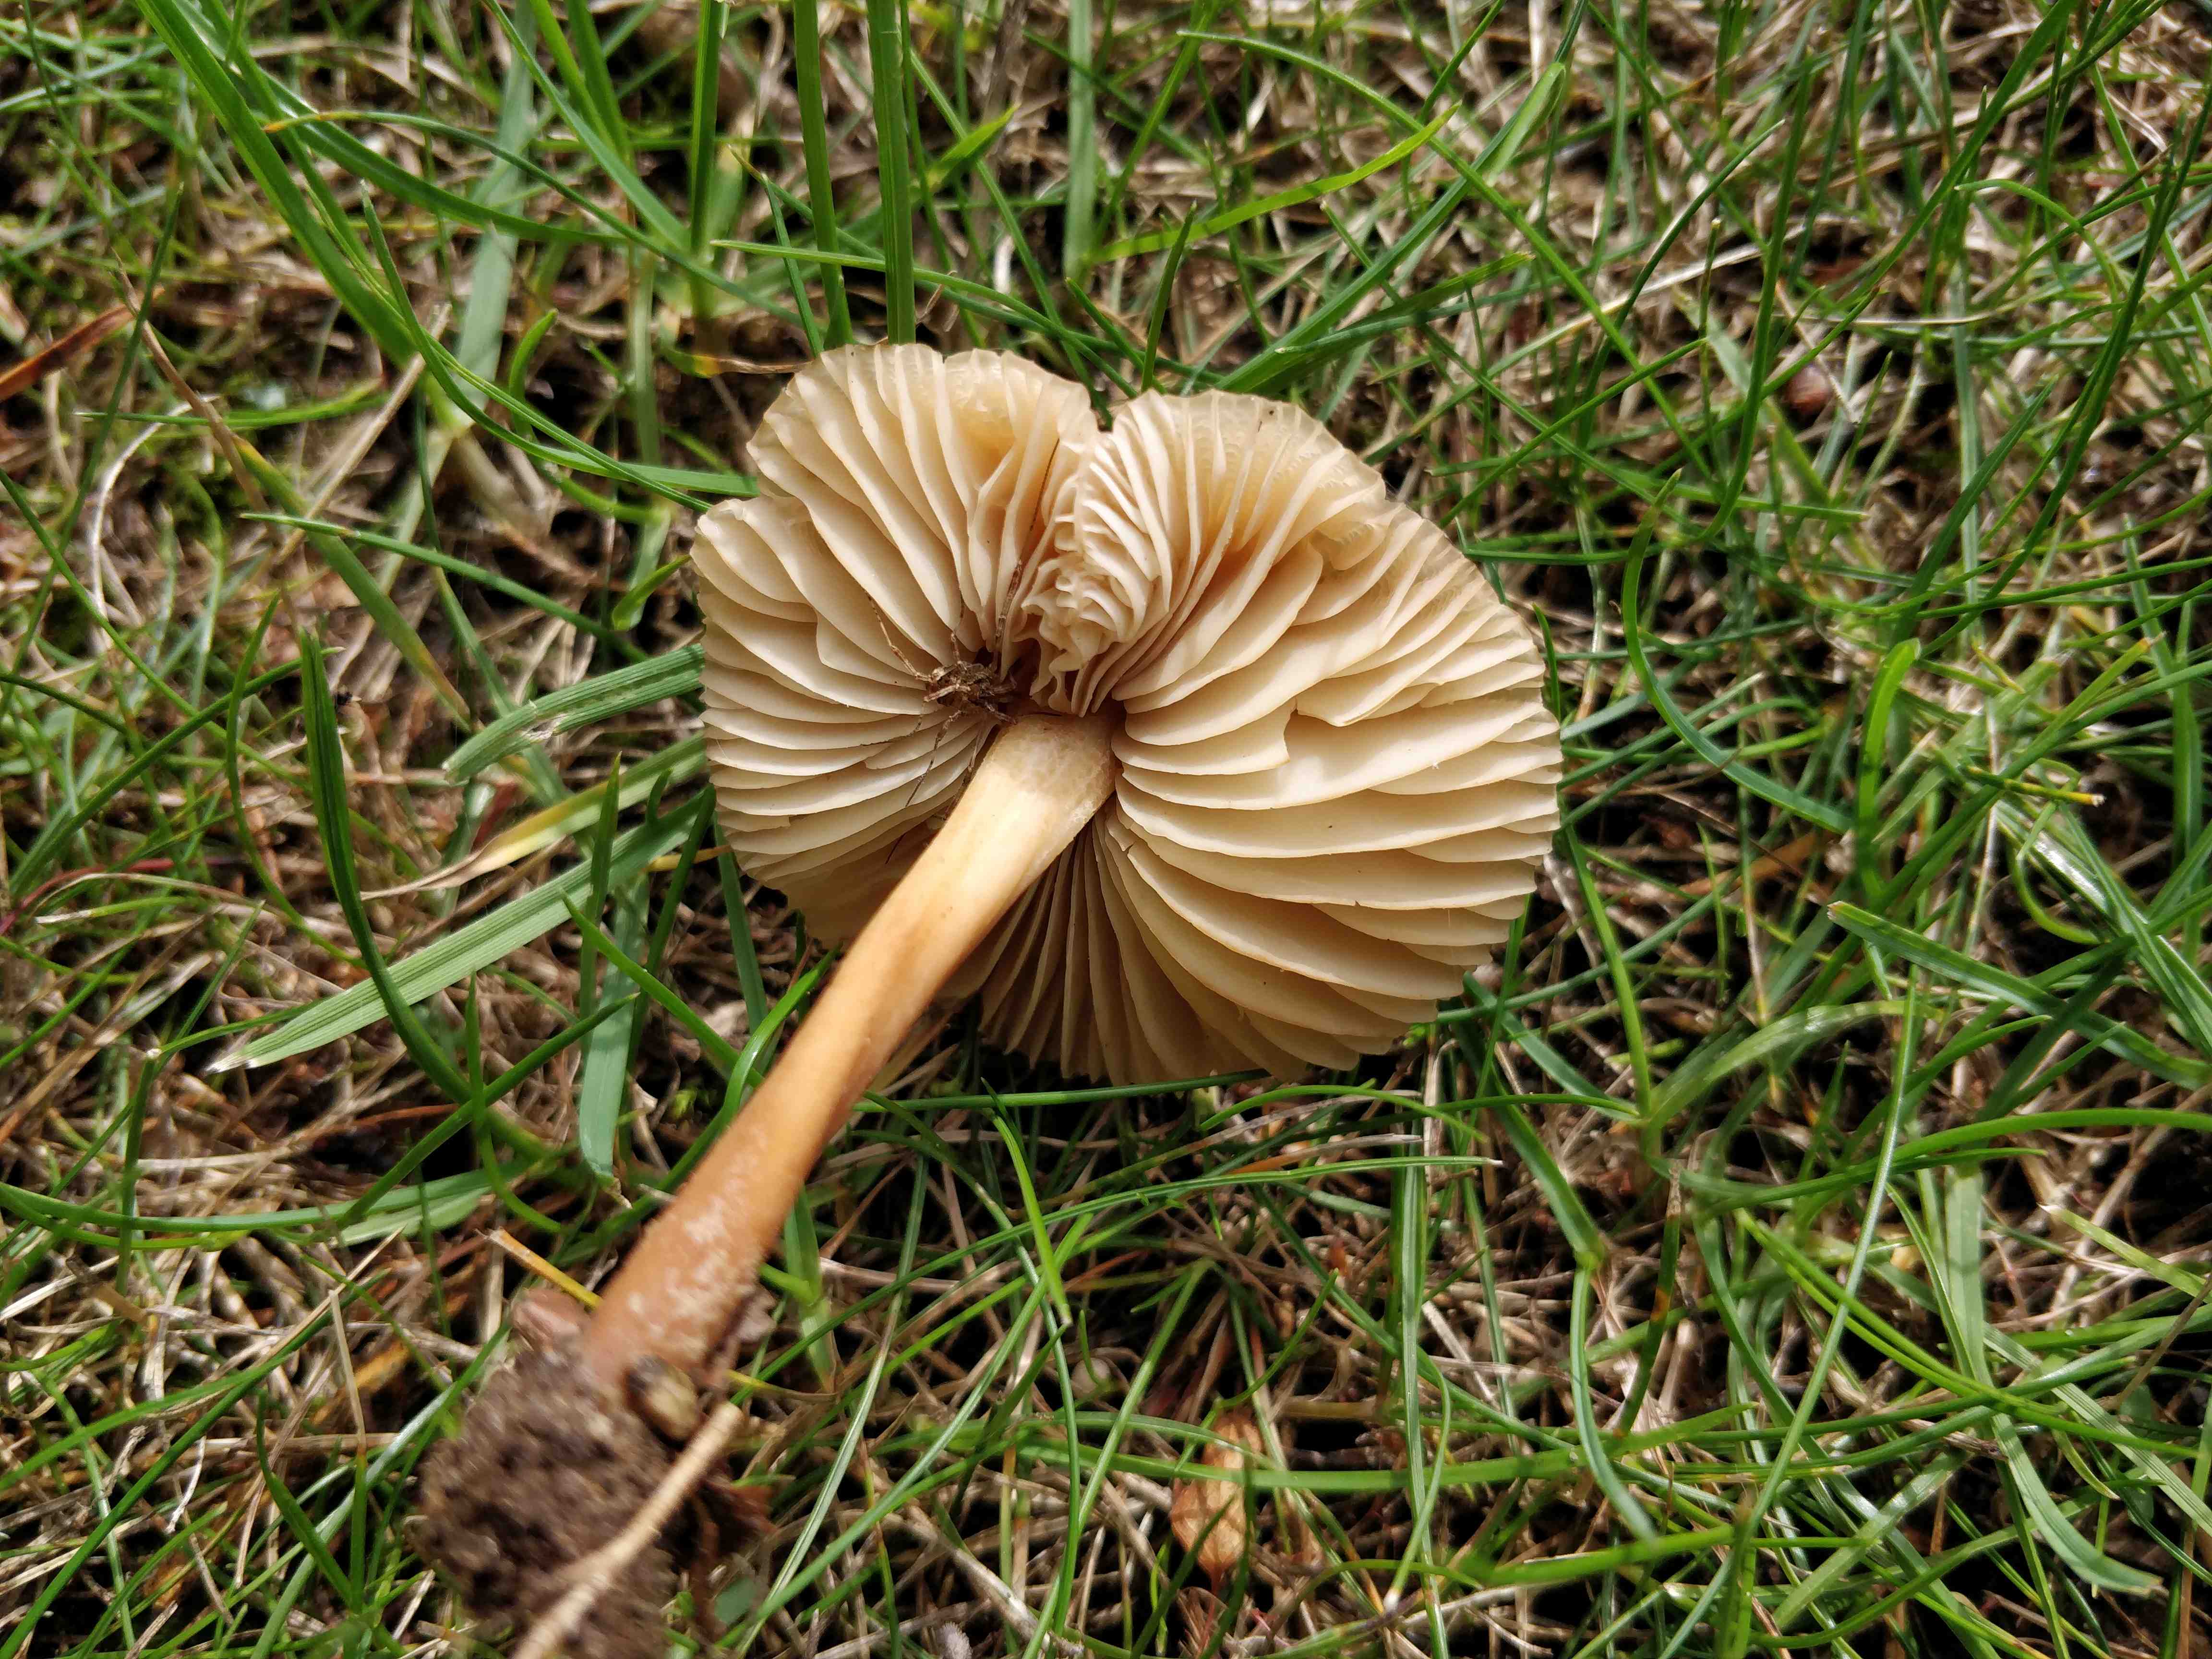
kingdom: Fungi
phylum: Basidiomycota
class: Agaricomycetes
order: Agaricales
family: Marasmiaceae
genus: Marasmius
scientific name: Marasmius oreades
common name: elledans-bruskhat
